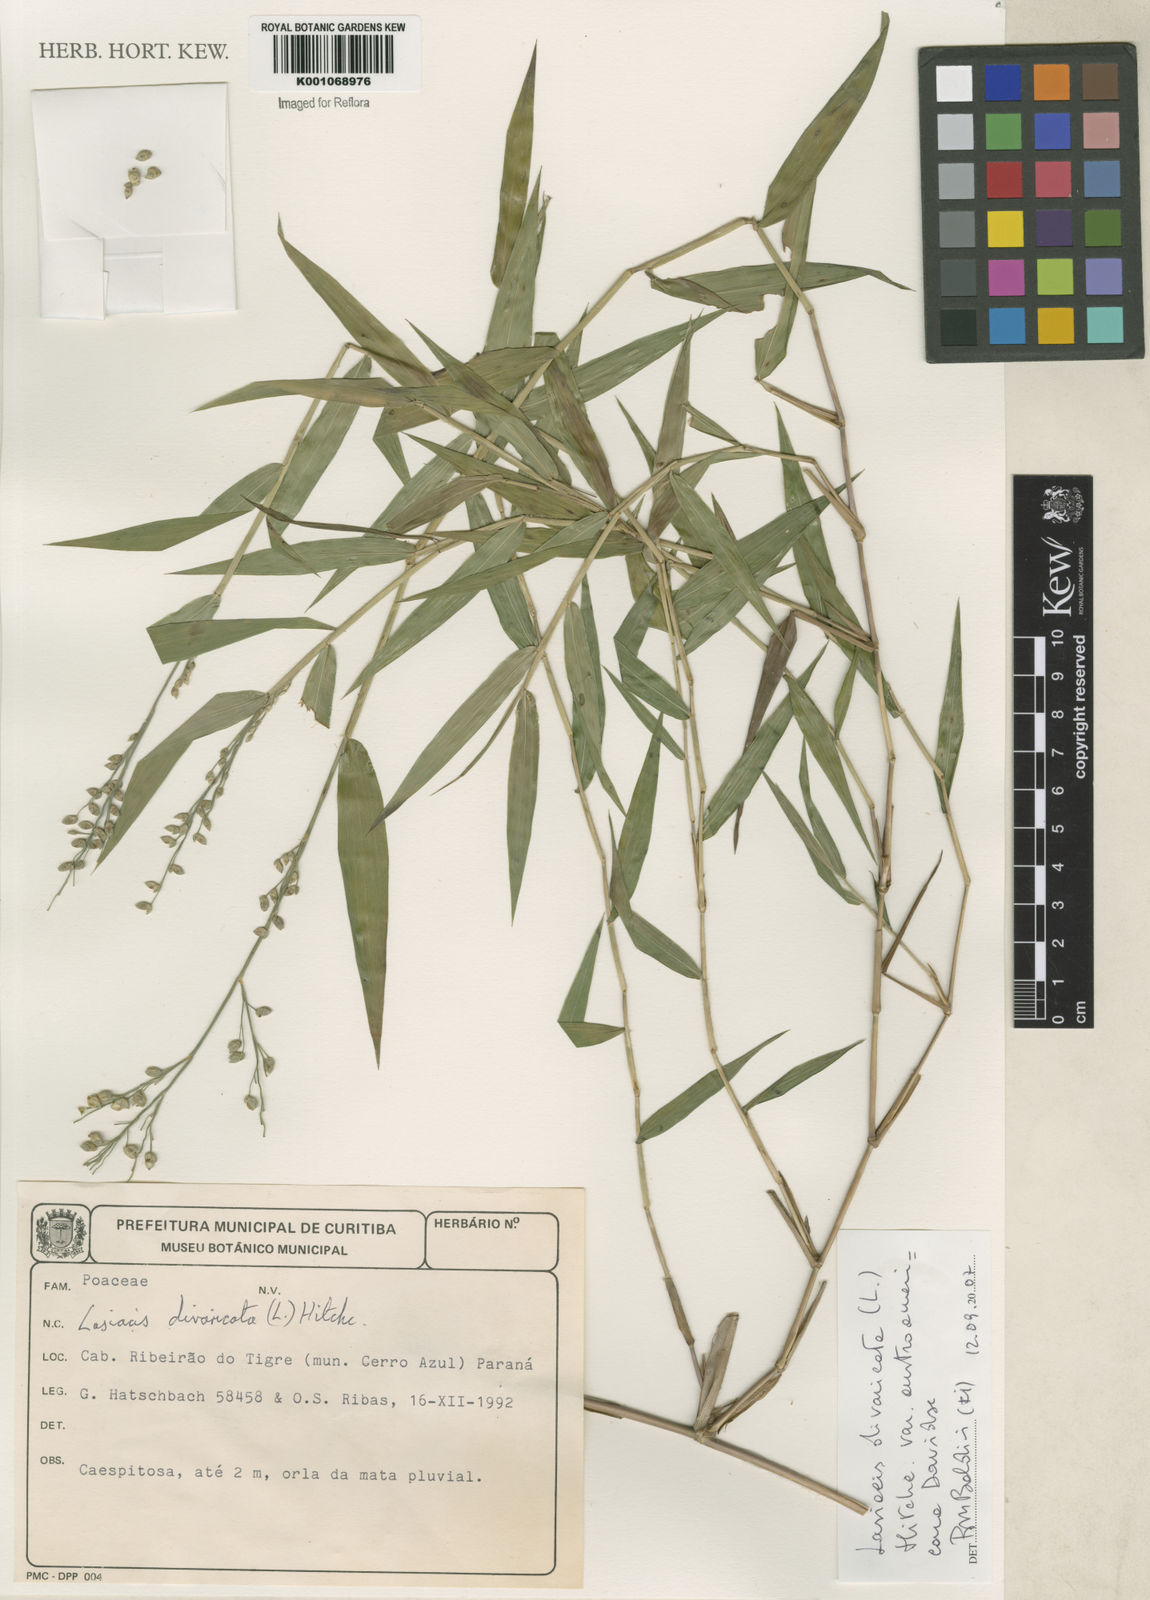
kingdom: Plantae
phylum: Tracheophyta
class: Liliopsida
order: Poales
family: Poaceae
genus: Lasiacis
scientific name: Lasiacis divaricata
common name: Smallcane
